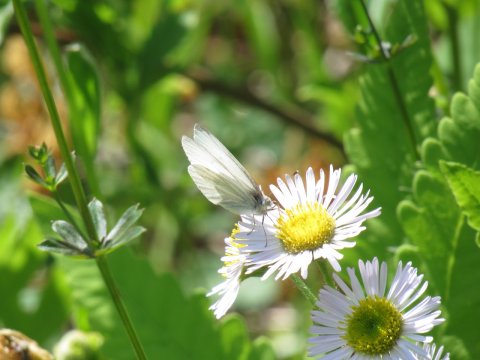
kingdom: Animalia
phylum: Arthropoda
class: Insecta
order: Lepidoptera
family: Pieridae
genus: Pieris
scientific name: Pieris virginiensis
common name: West Virginia White
